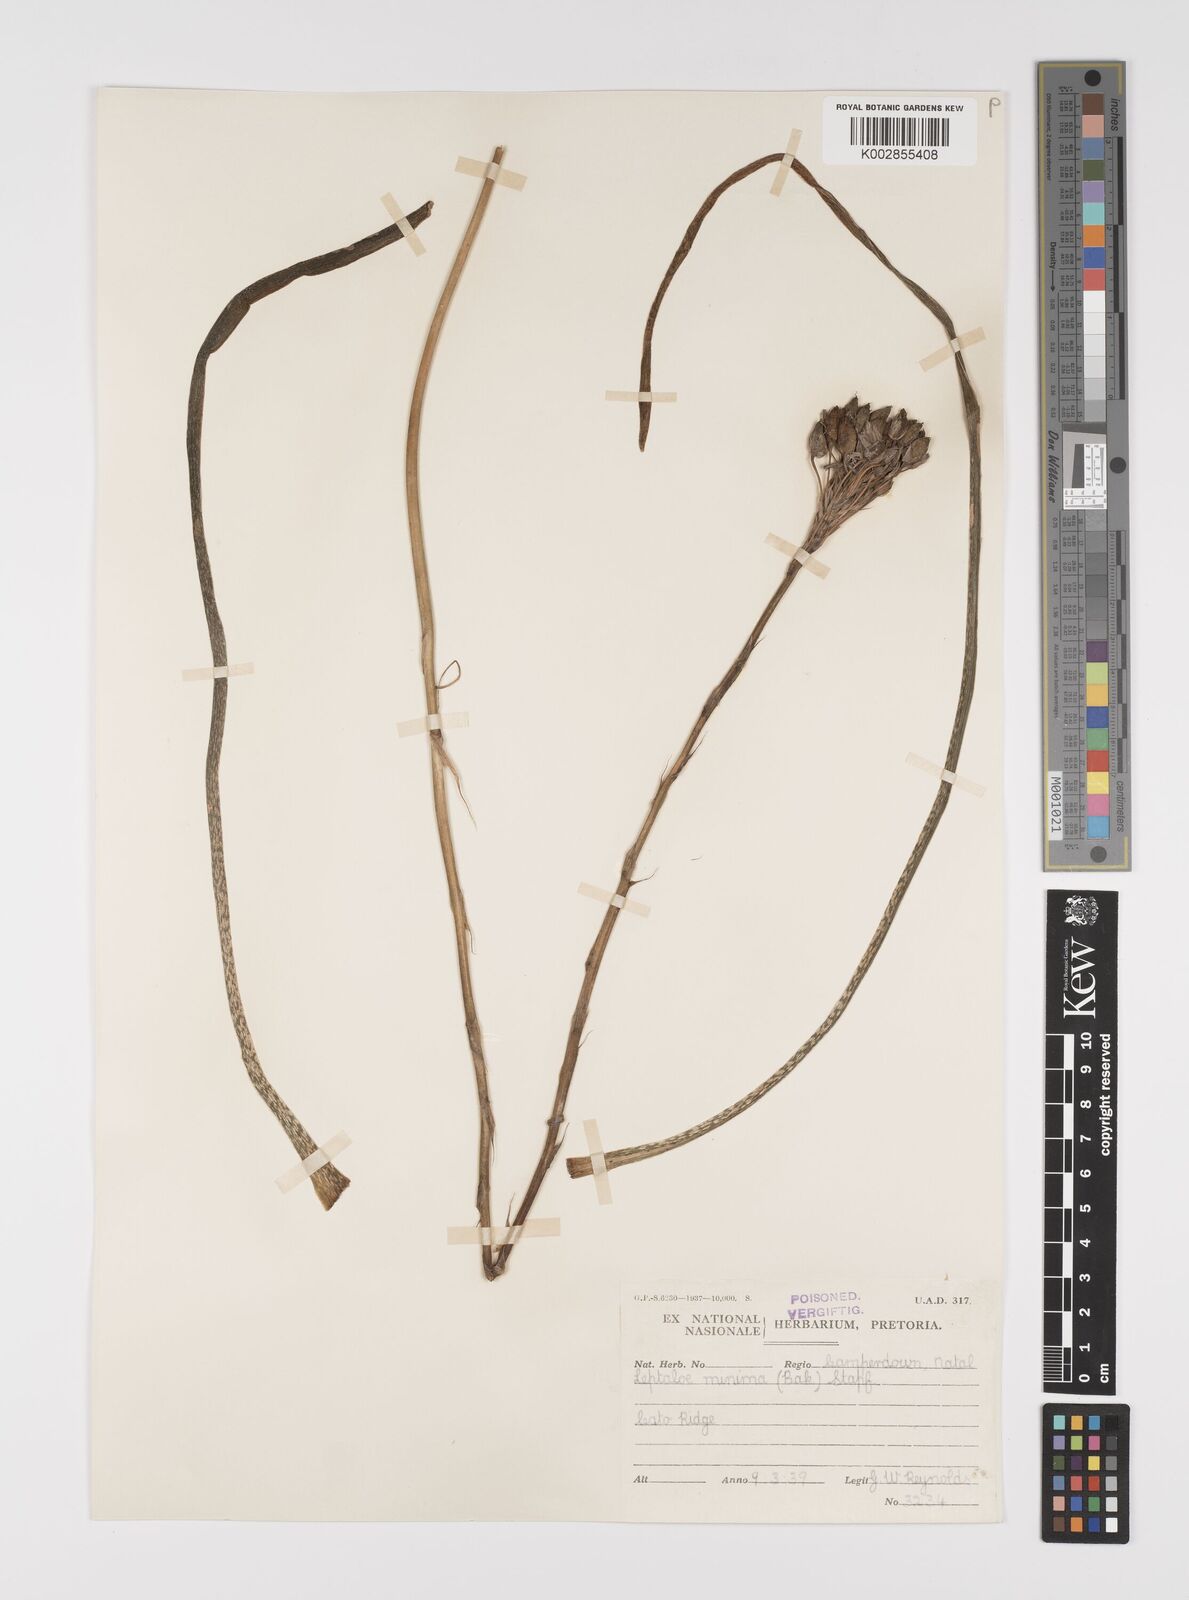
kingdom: Plantae
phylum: Tracheophyta
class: Liliopsida
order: Asparagales
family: Asphodelaceae
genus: Aloe
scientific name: Aloe minima
